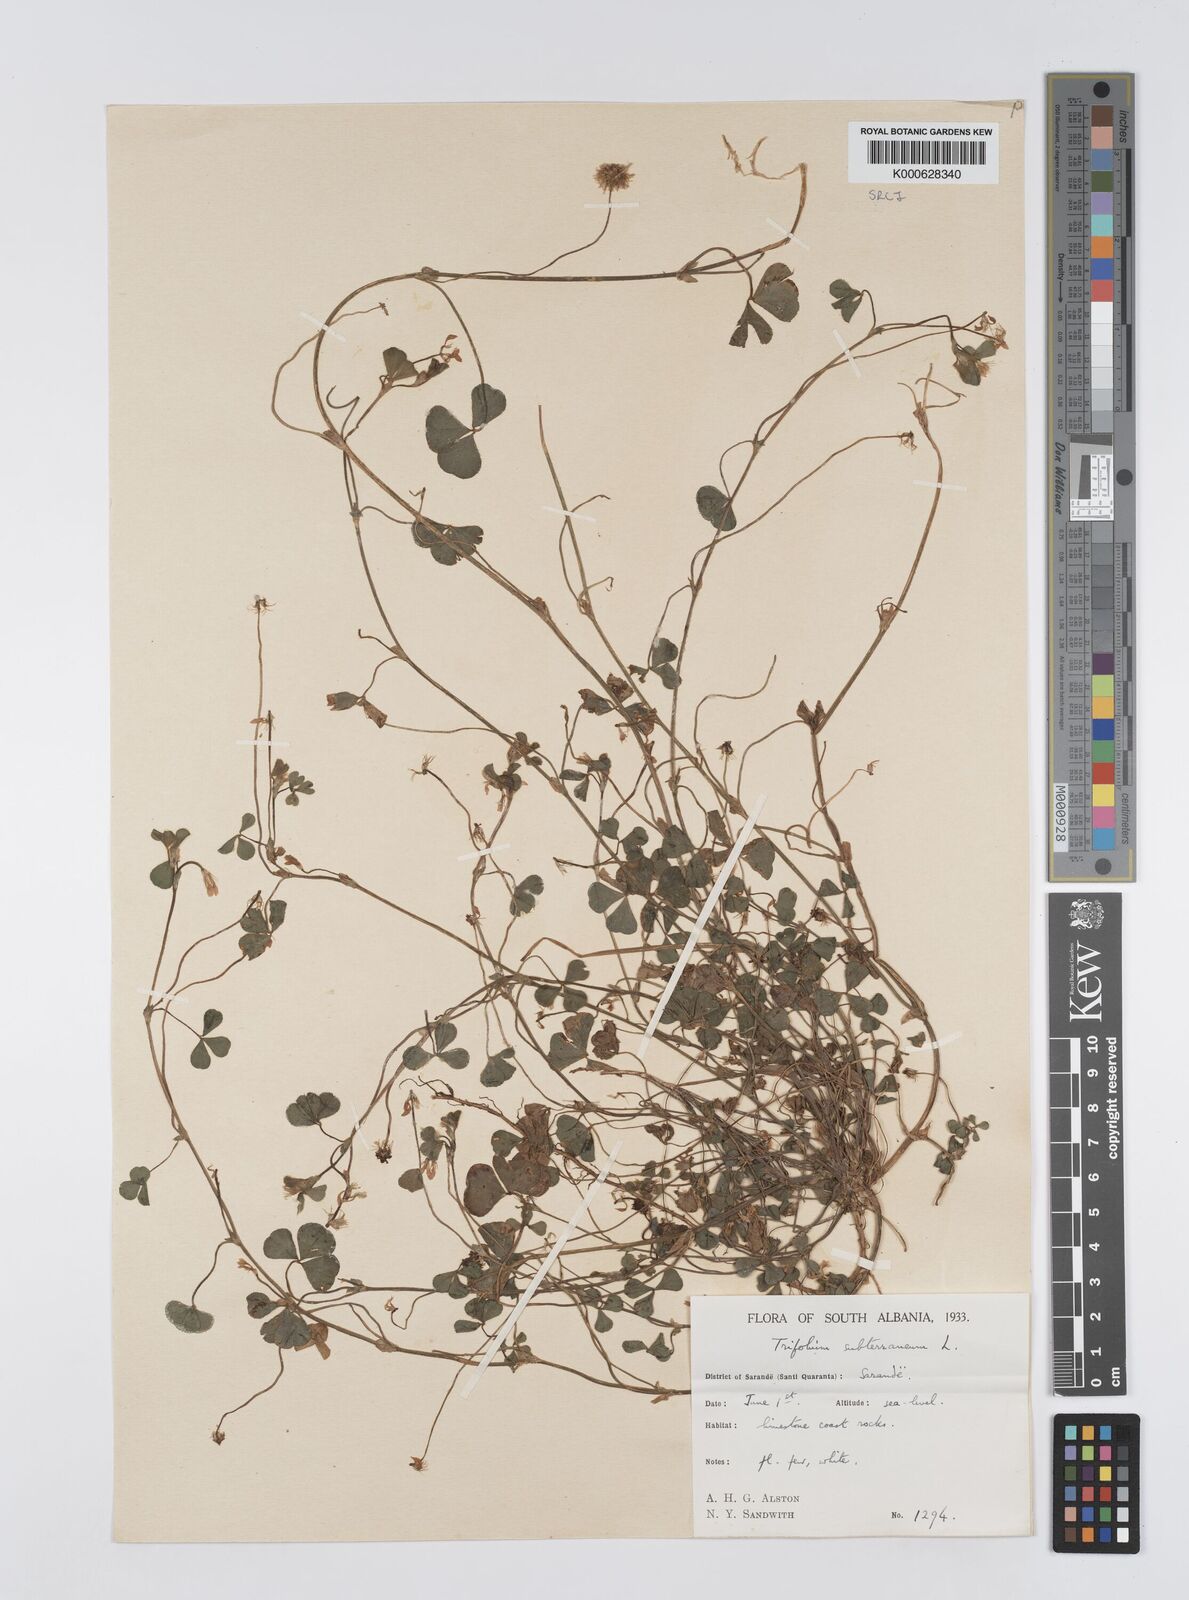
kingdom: Plantae
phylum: Tracheophyta
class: Magnoliopsida
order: Fabales
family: Fabaceae
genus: Trifolium
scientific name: Trifolium subterraneum
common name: Subterranean clover
